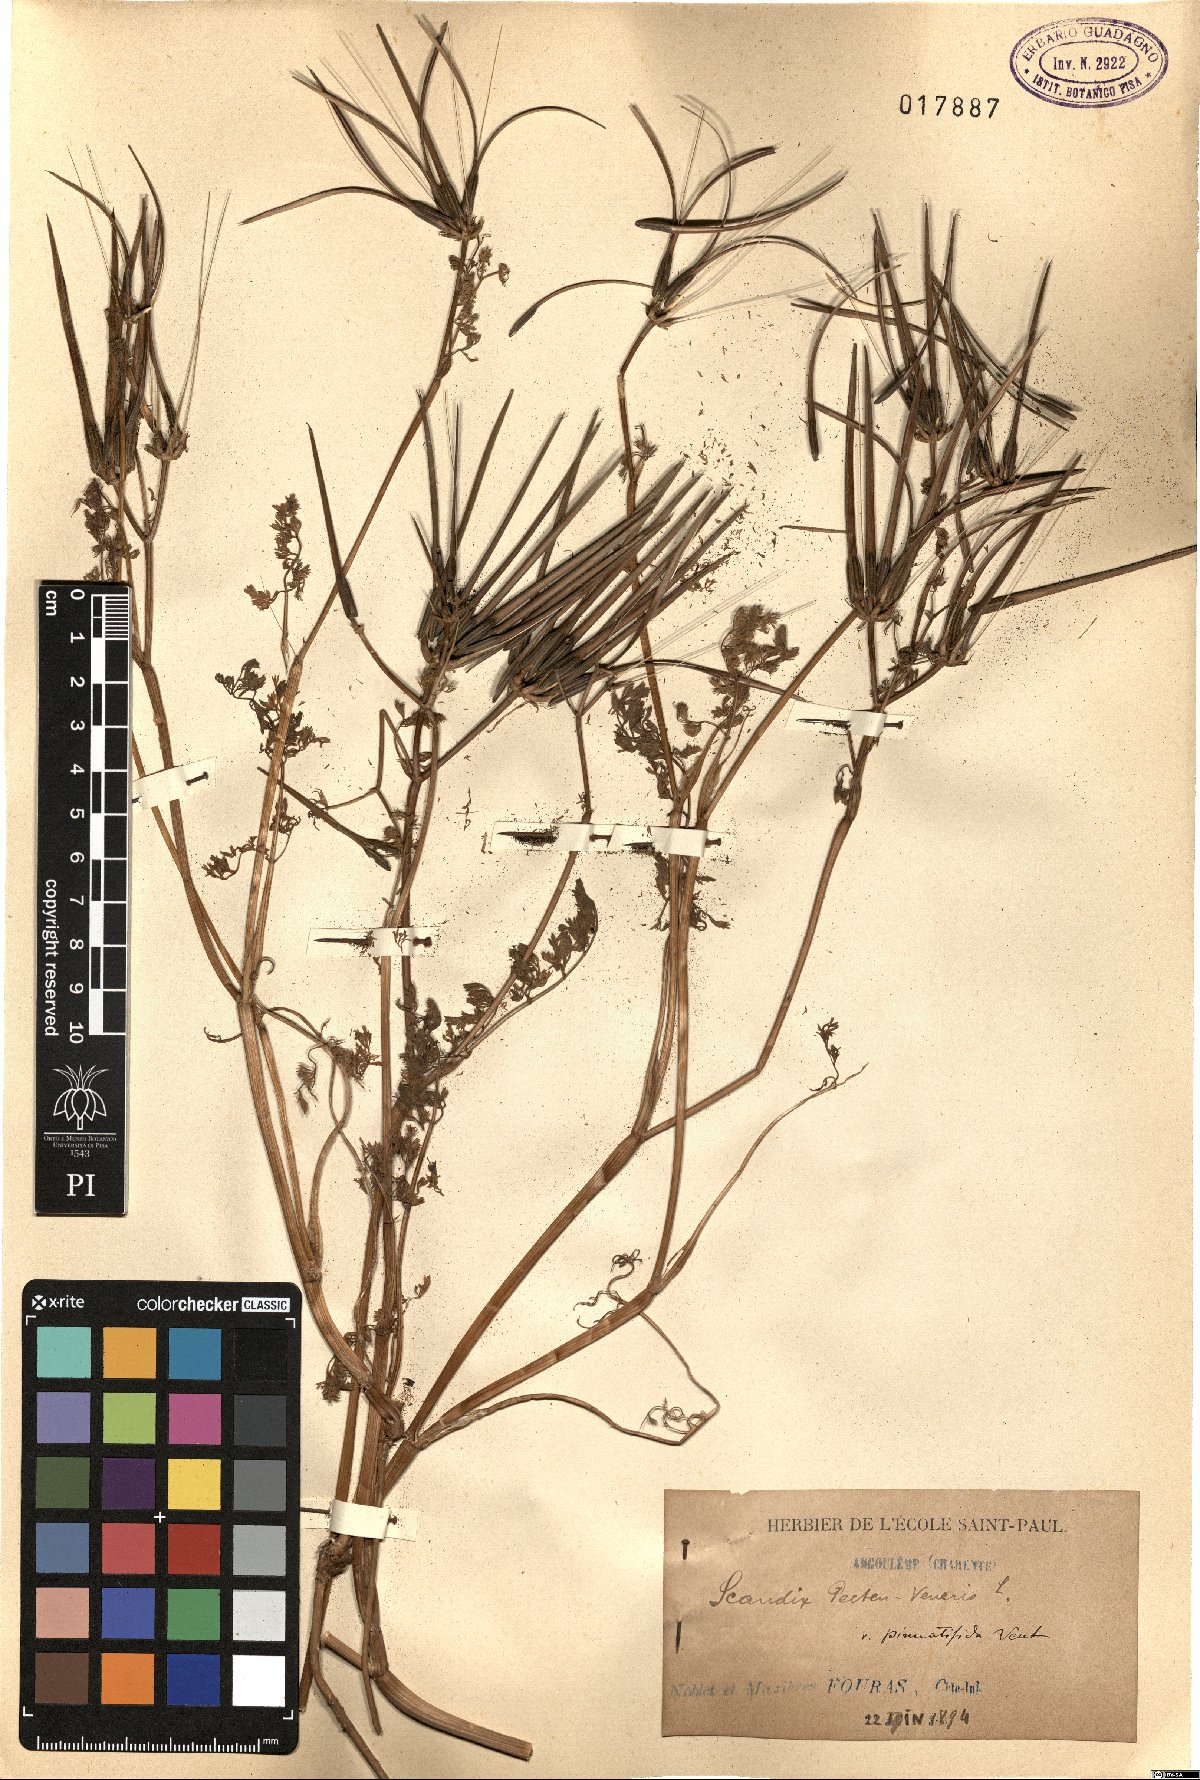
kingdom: Plantae
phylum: Tracheophyta
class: Magnoliopsida
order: Apiales
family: Apiaceae
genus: Scandix
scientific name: Scandix stellata
